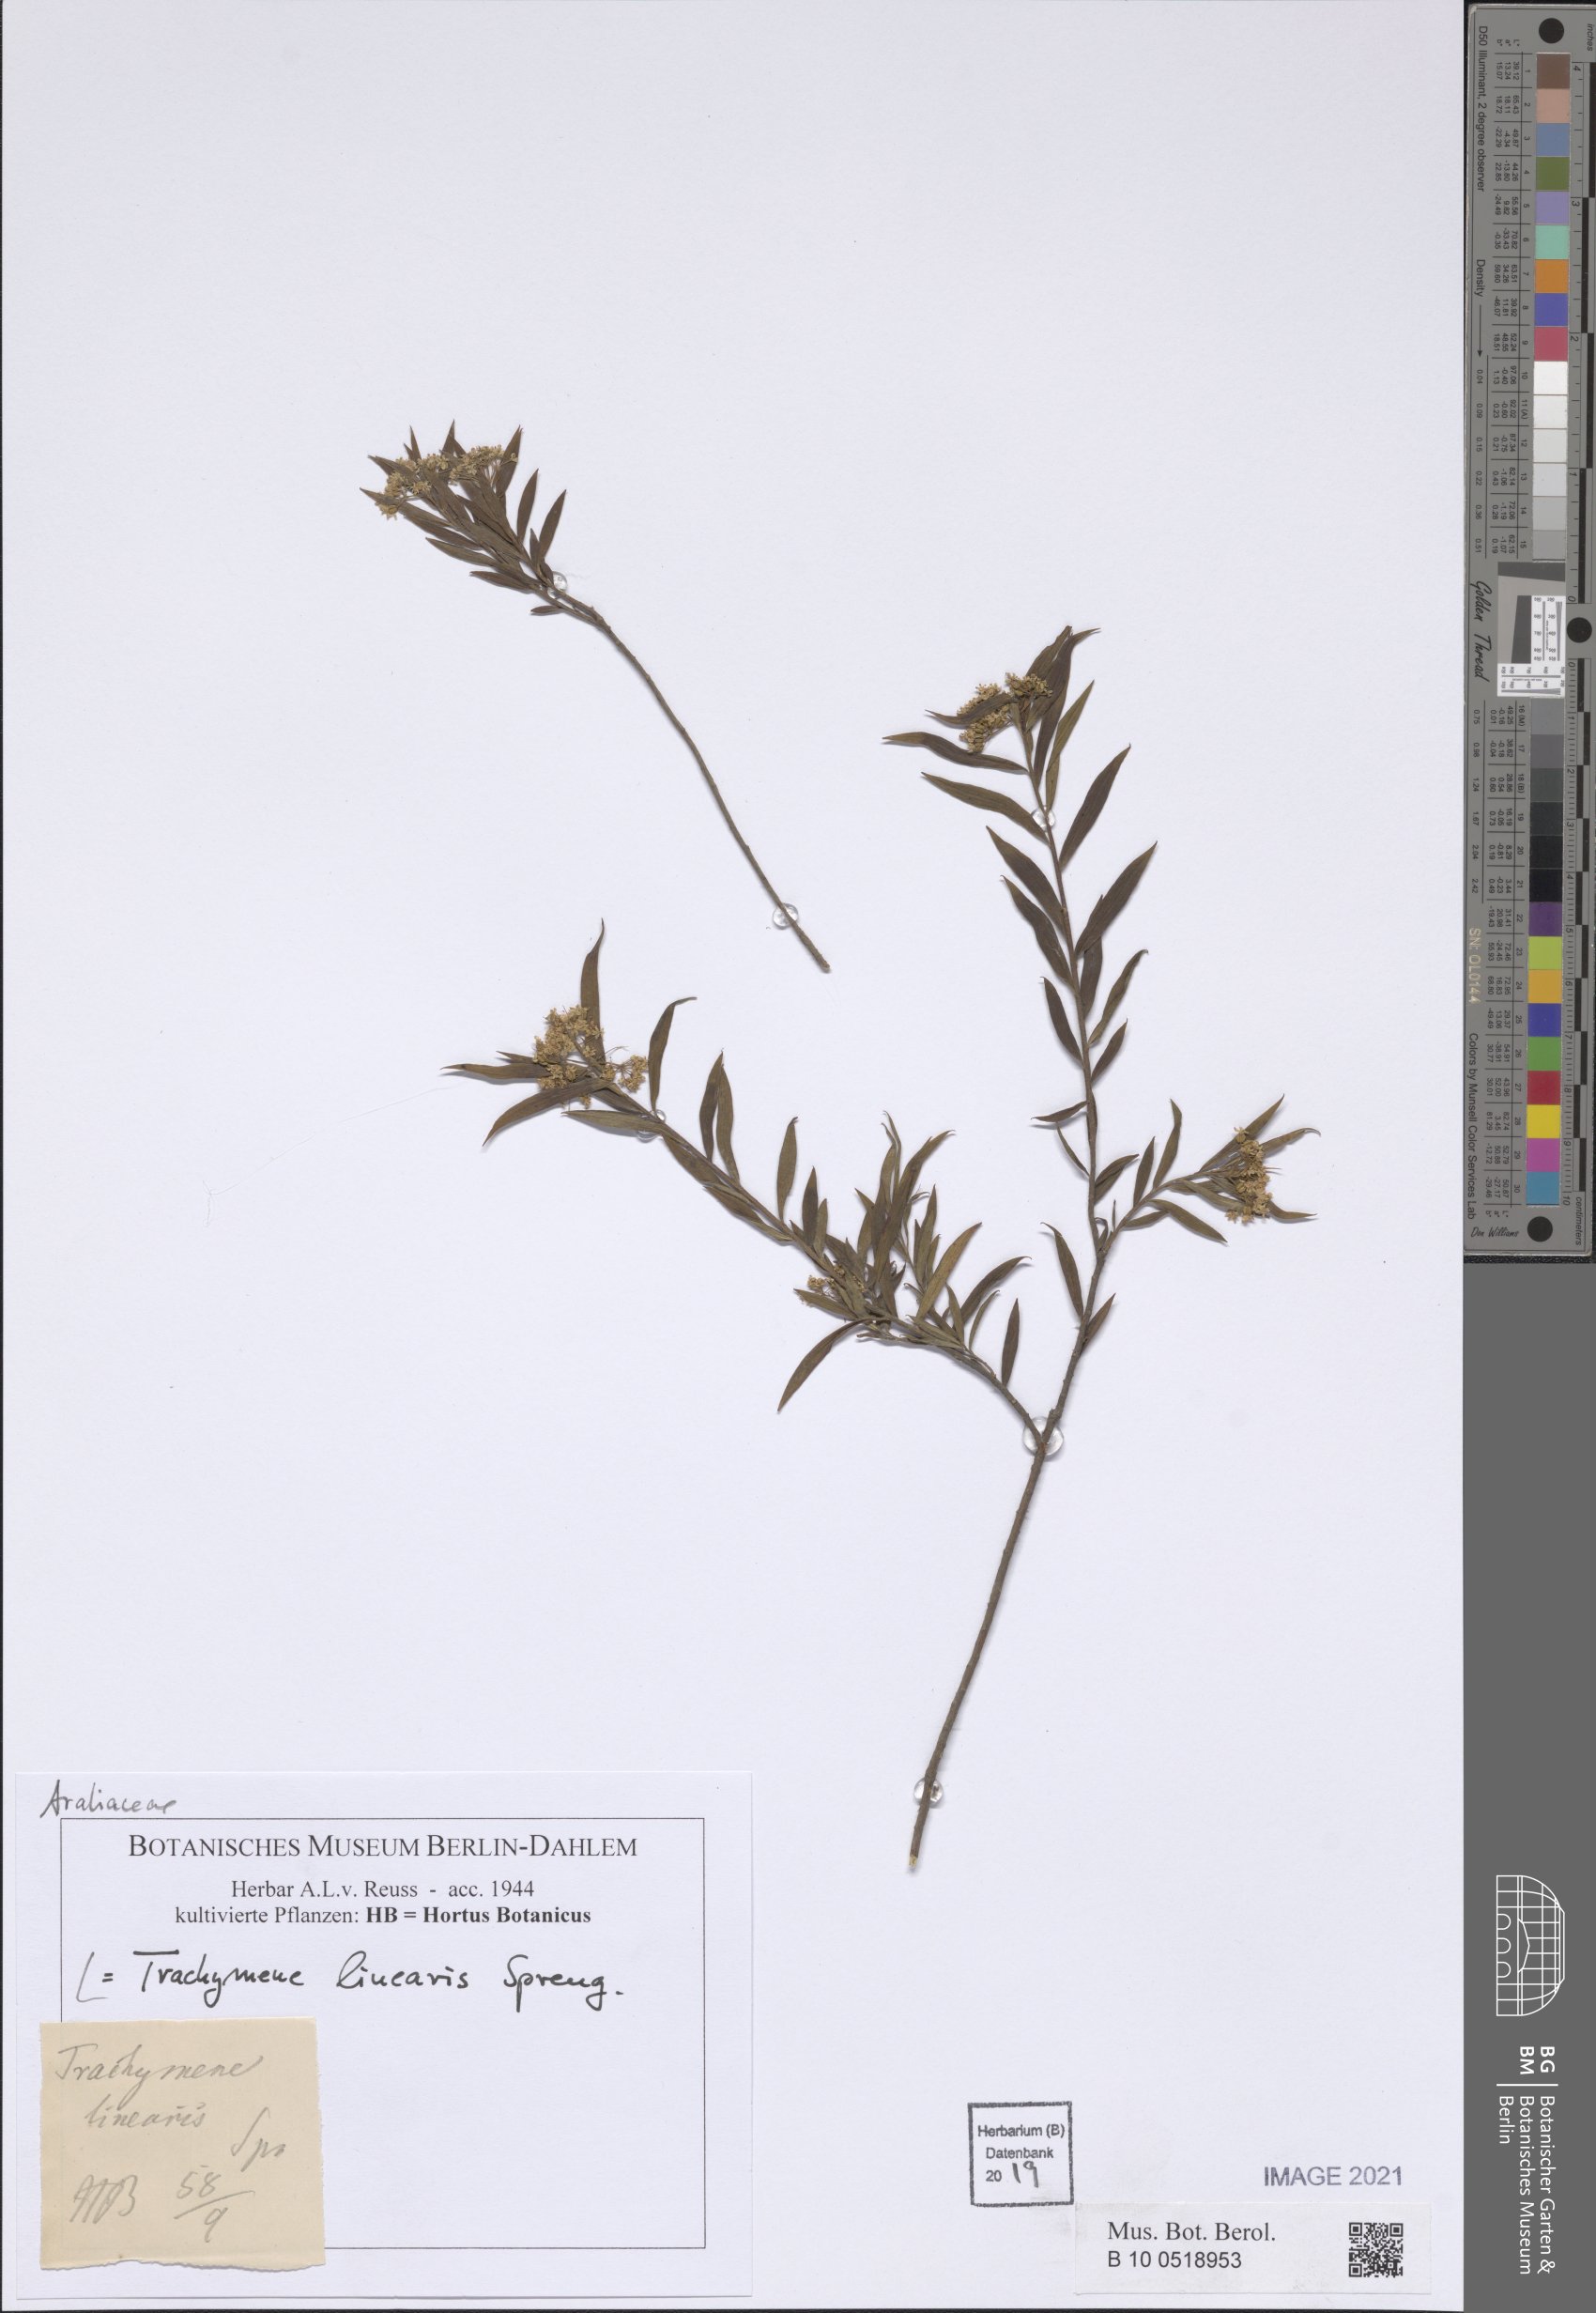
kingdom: Plantae
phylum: Tracheophyta
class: Magnoliopsida
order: Apiales
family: Apiaceae
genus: Platysace
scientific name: Platysace linearifolia
